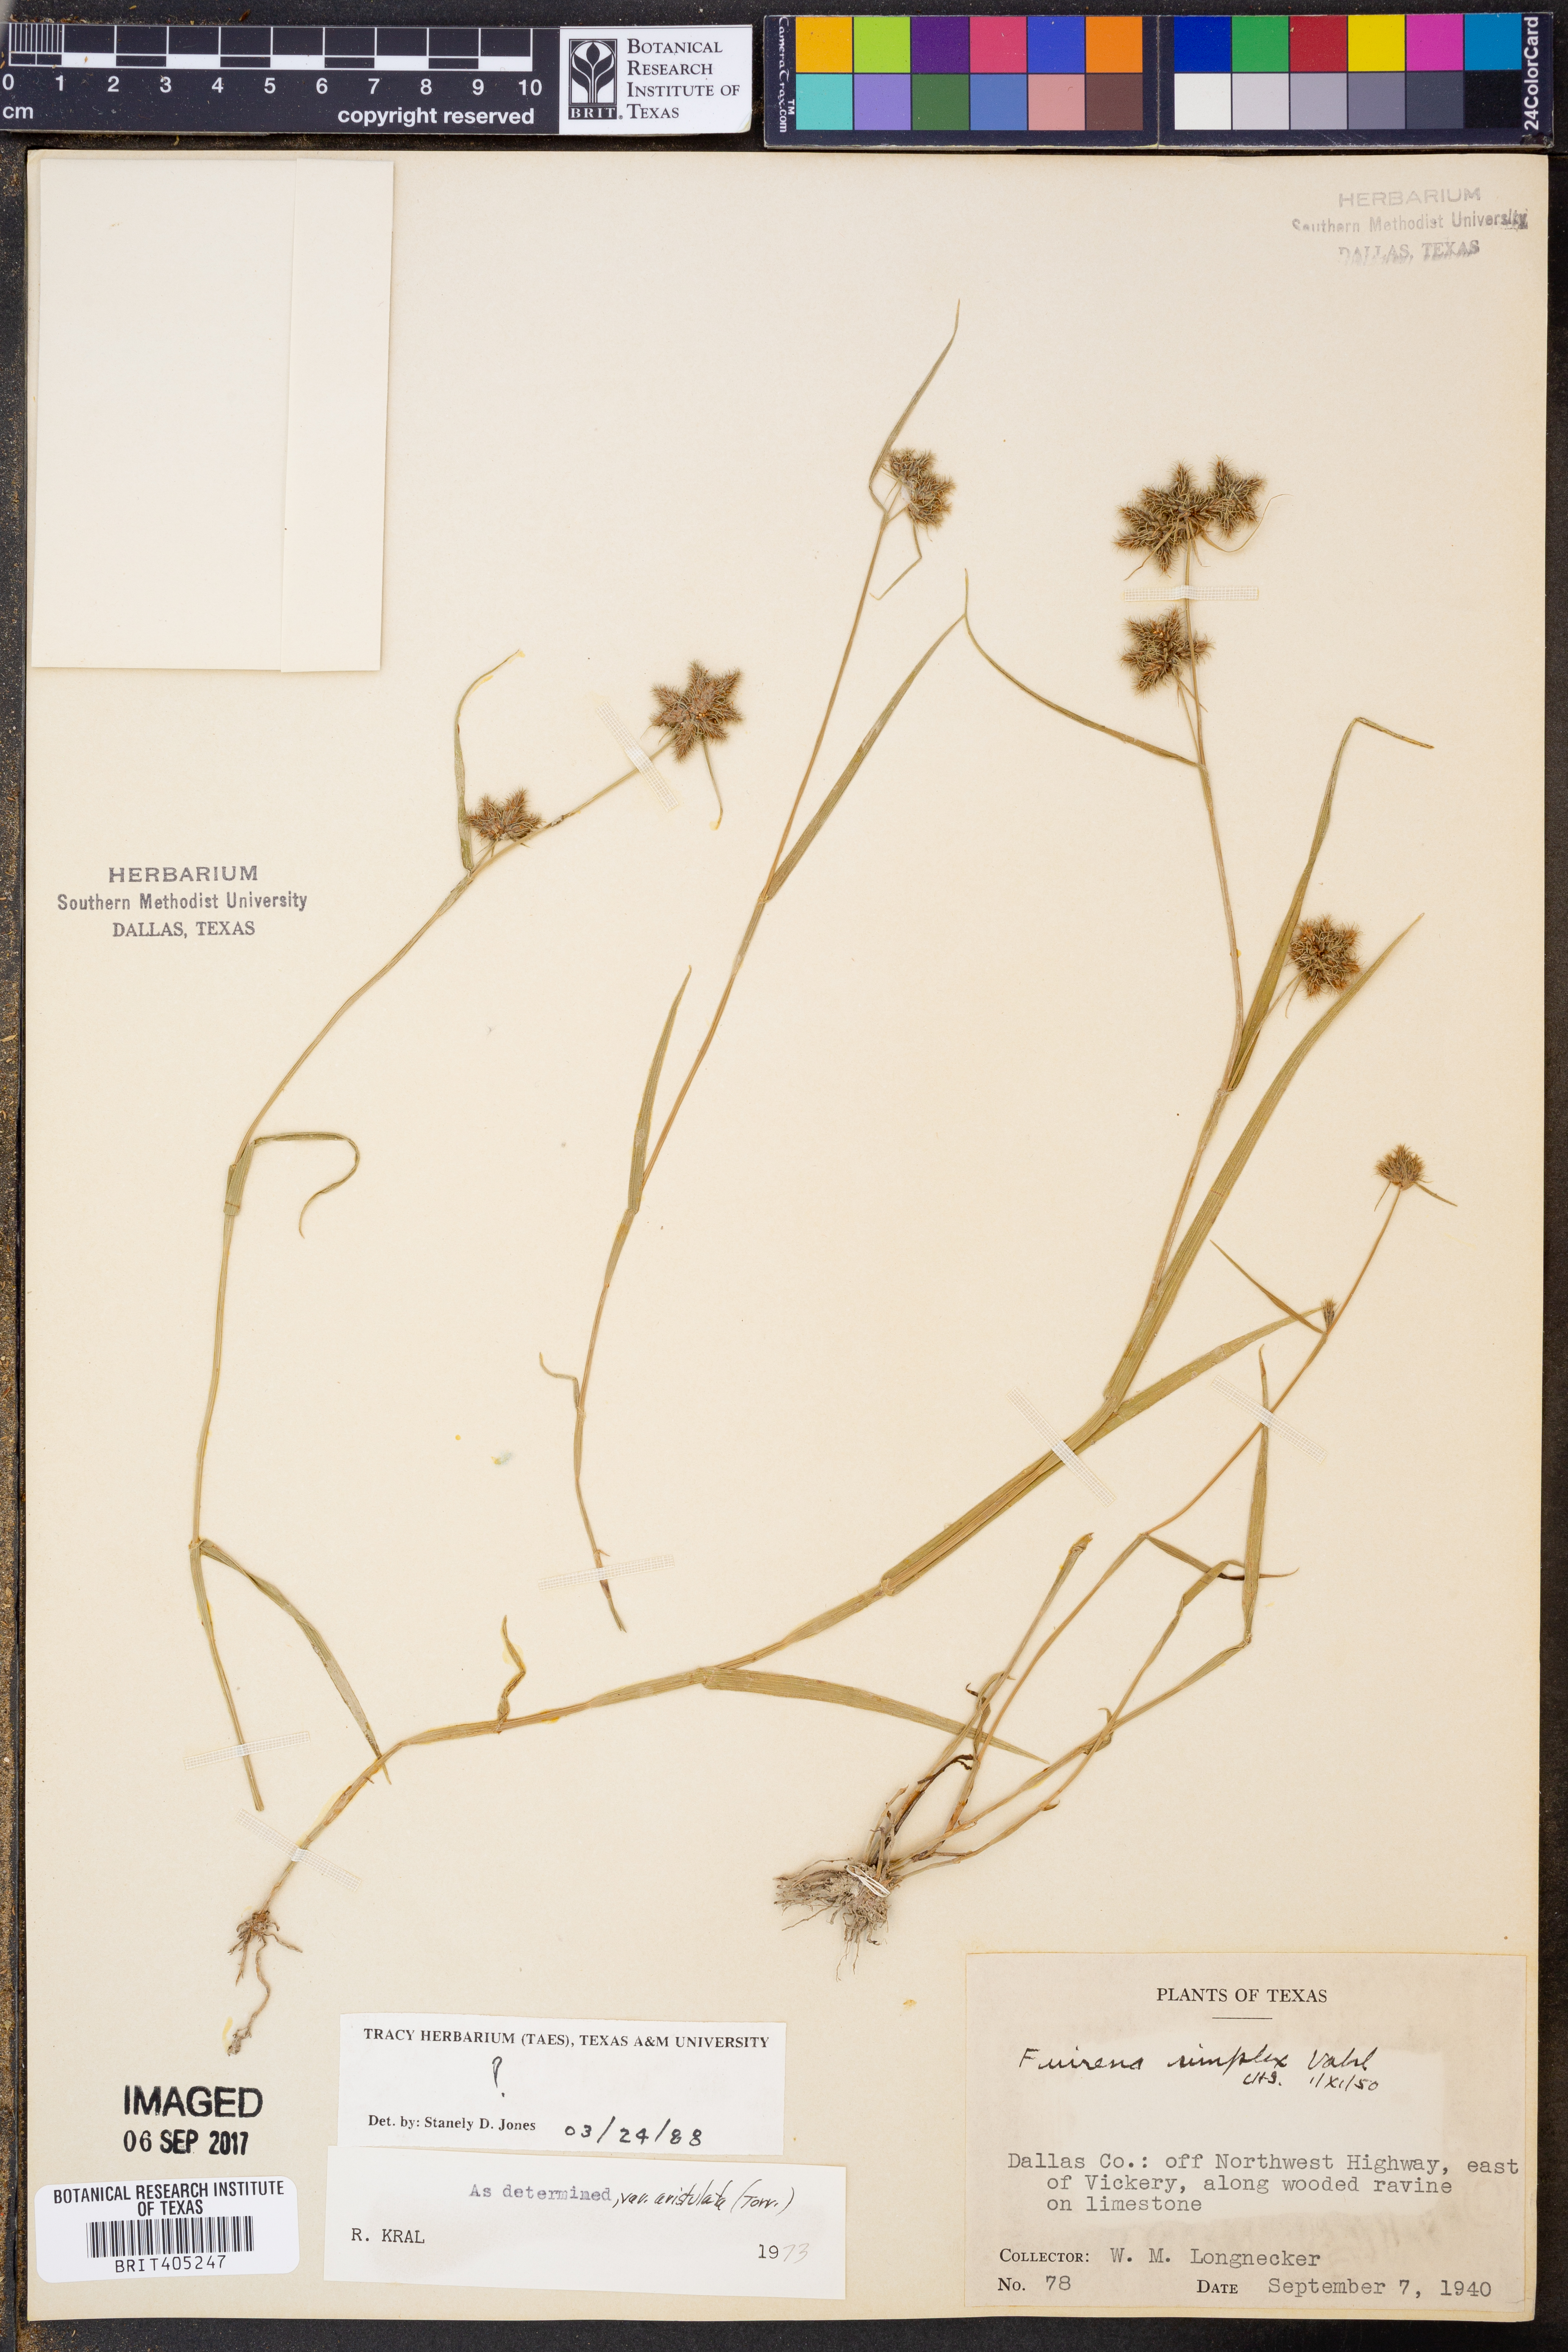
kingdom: Plantae
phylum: Tracheophyta
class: Liliopsida
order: Poales
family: Cyperaceae
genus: Fuirena
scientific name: Fuirena simplex
